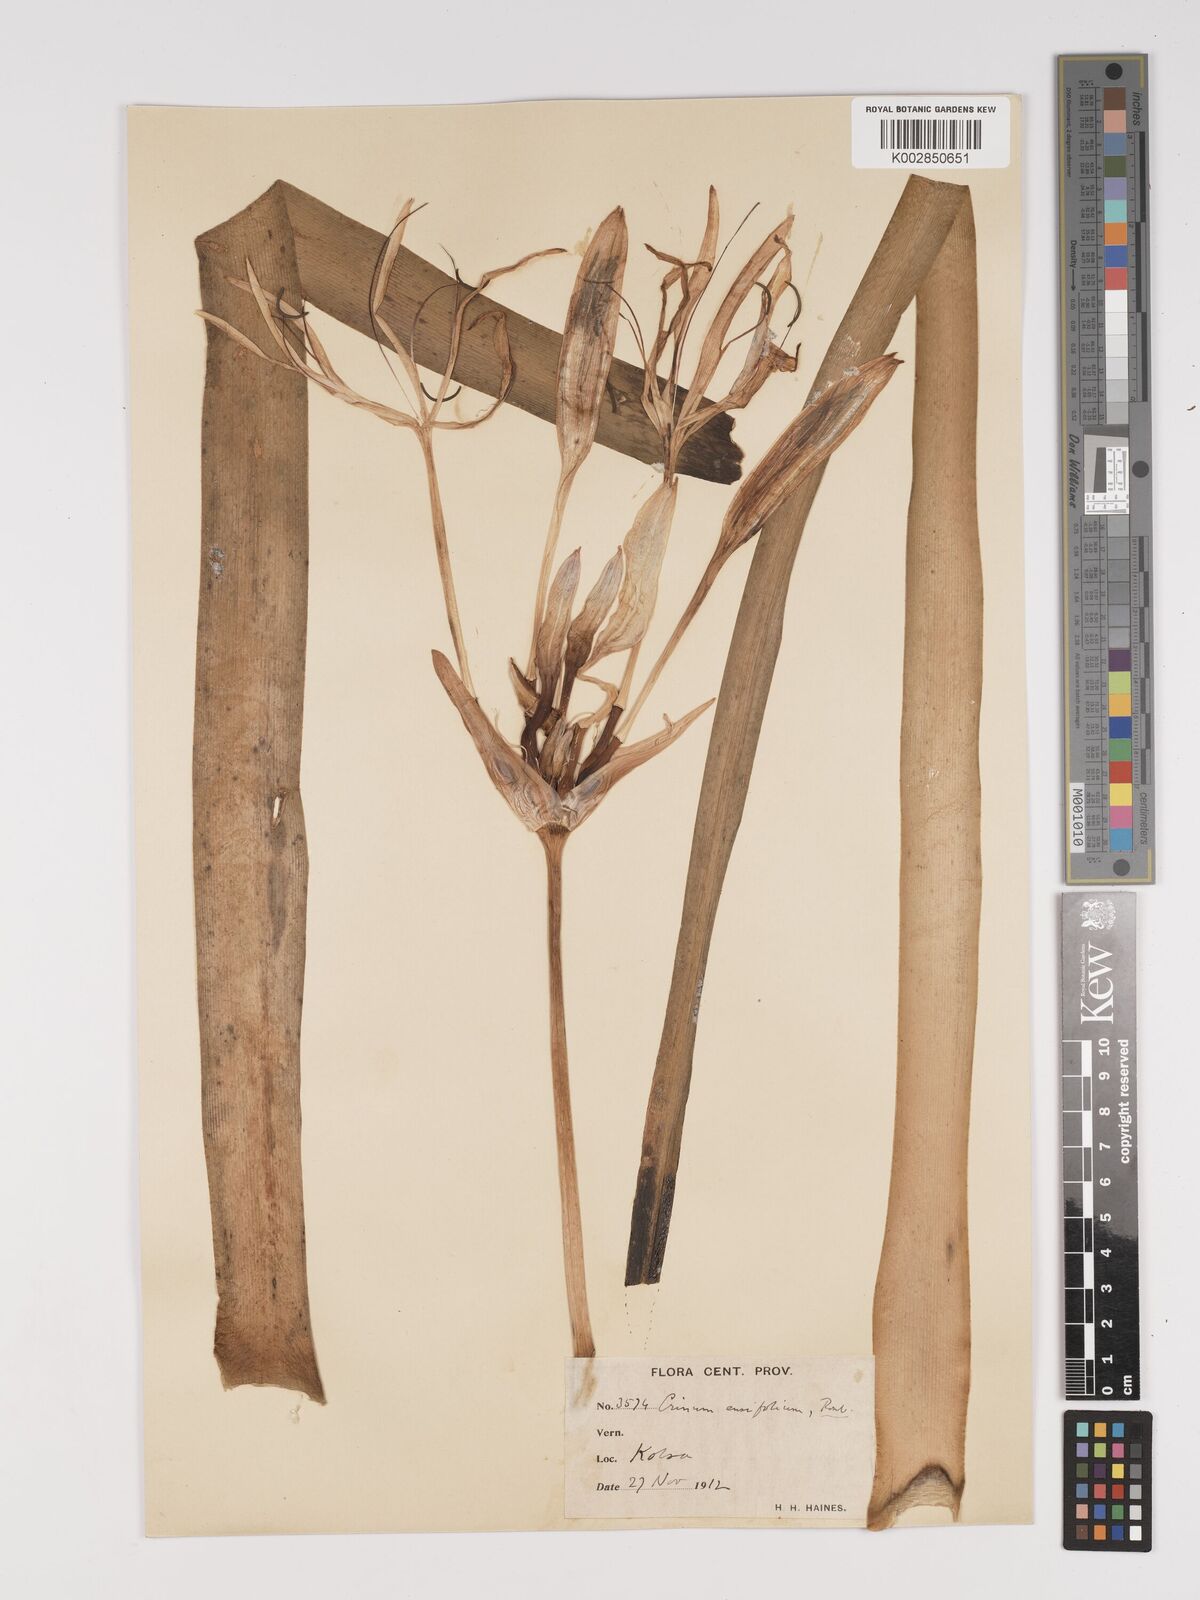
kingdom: Plantae
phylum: Tracheophyta
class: Liliopsida
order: Asparagales
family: Amaryllidaceae
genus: Crinum
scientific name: Crinum
